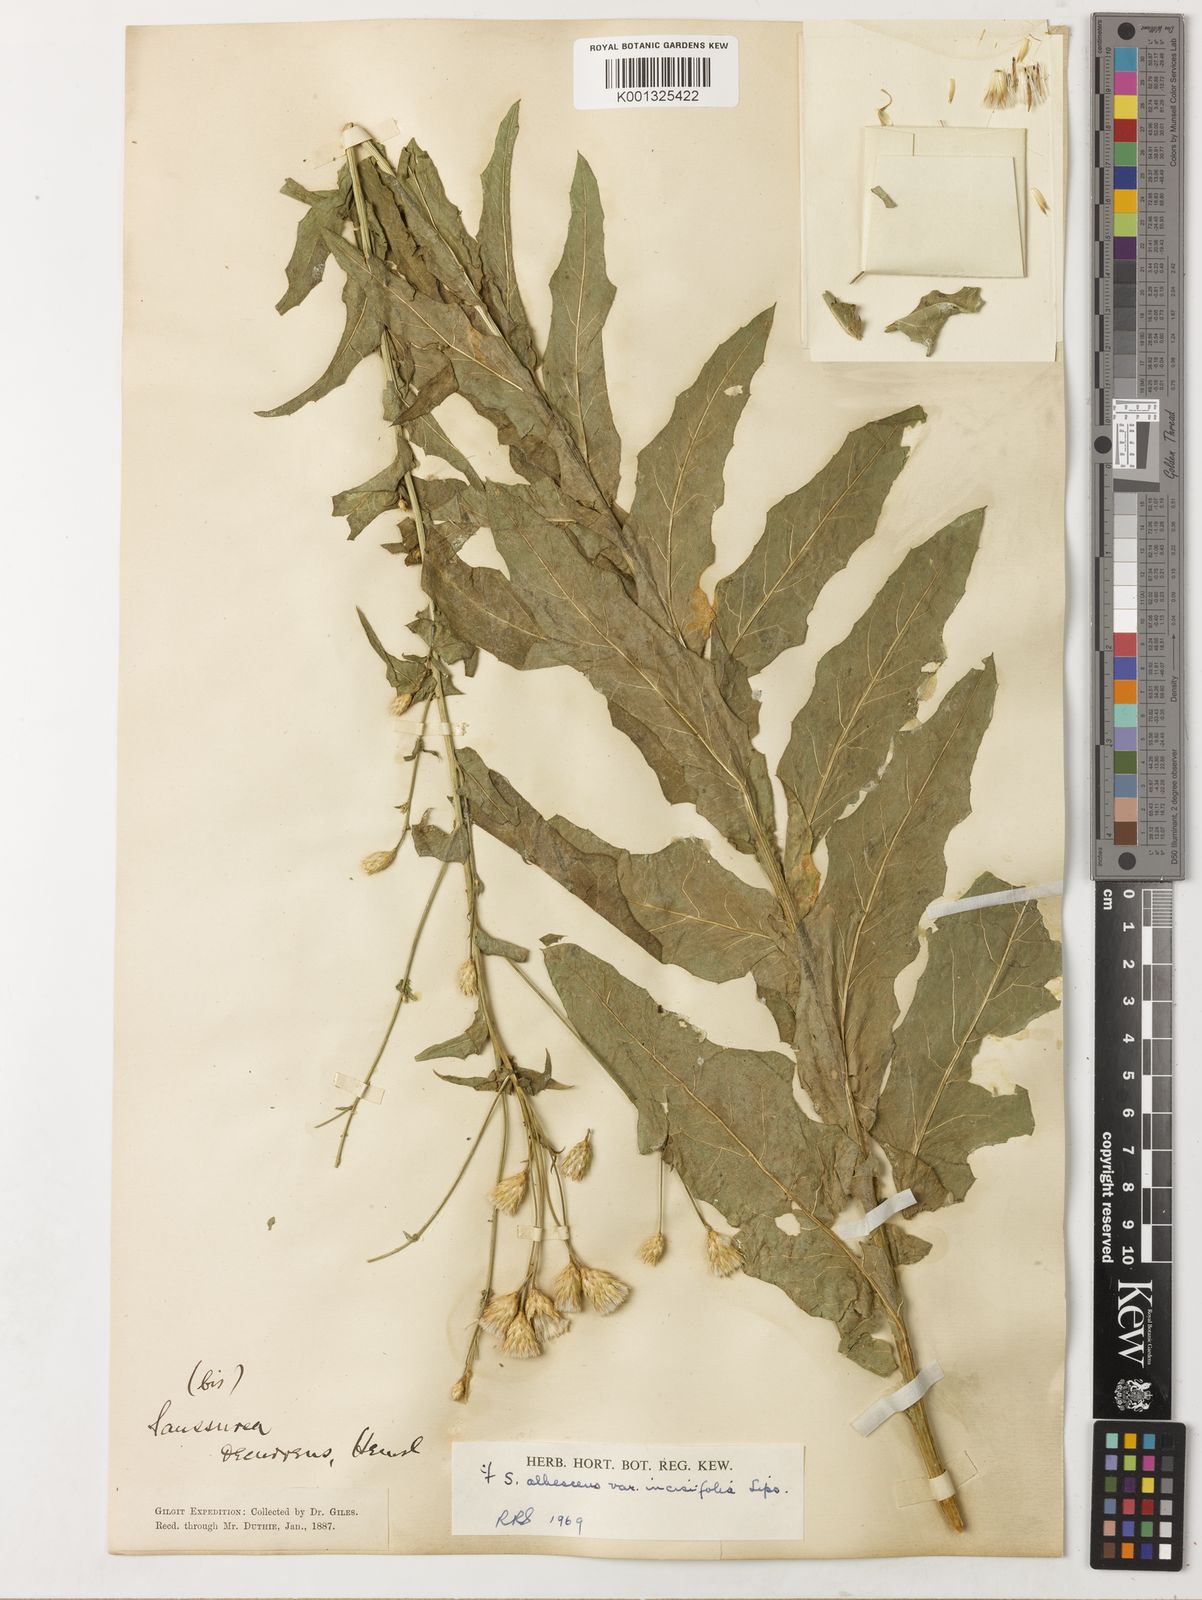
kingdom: Plantae
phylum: Tracheophyta
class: Magnoliopsida
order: Asterales
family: Asteraceae
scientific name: Asteraceae
